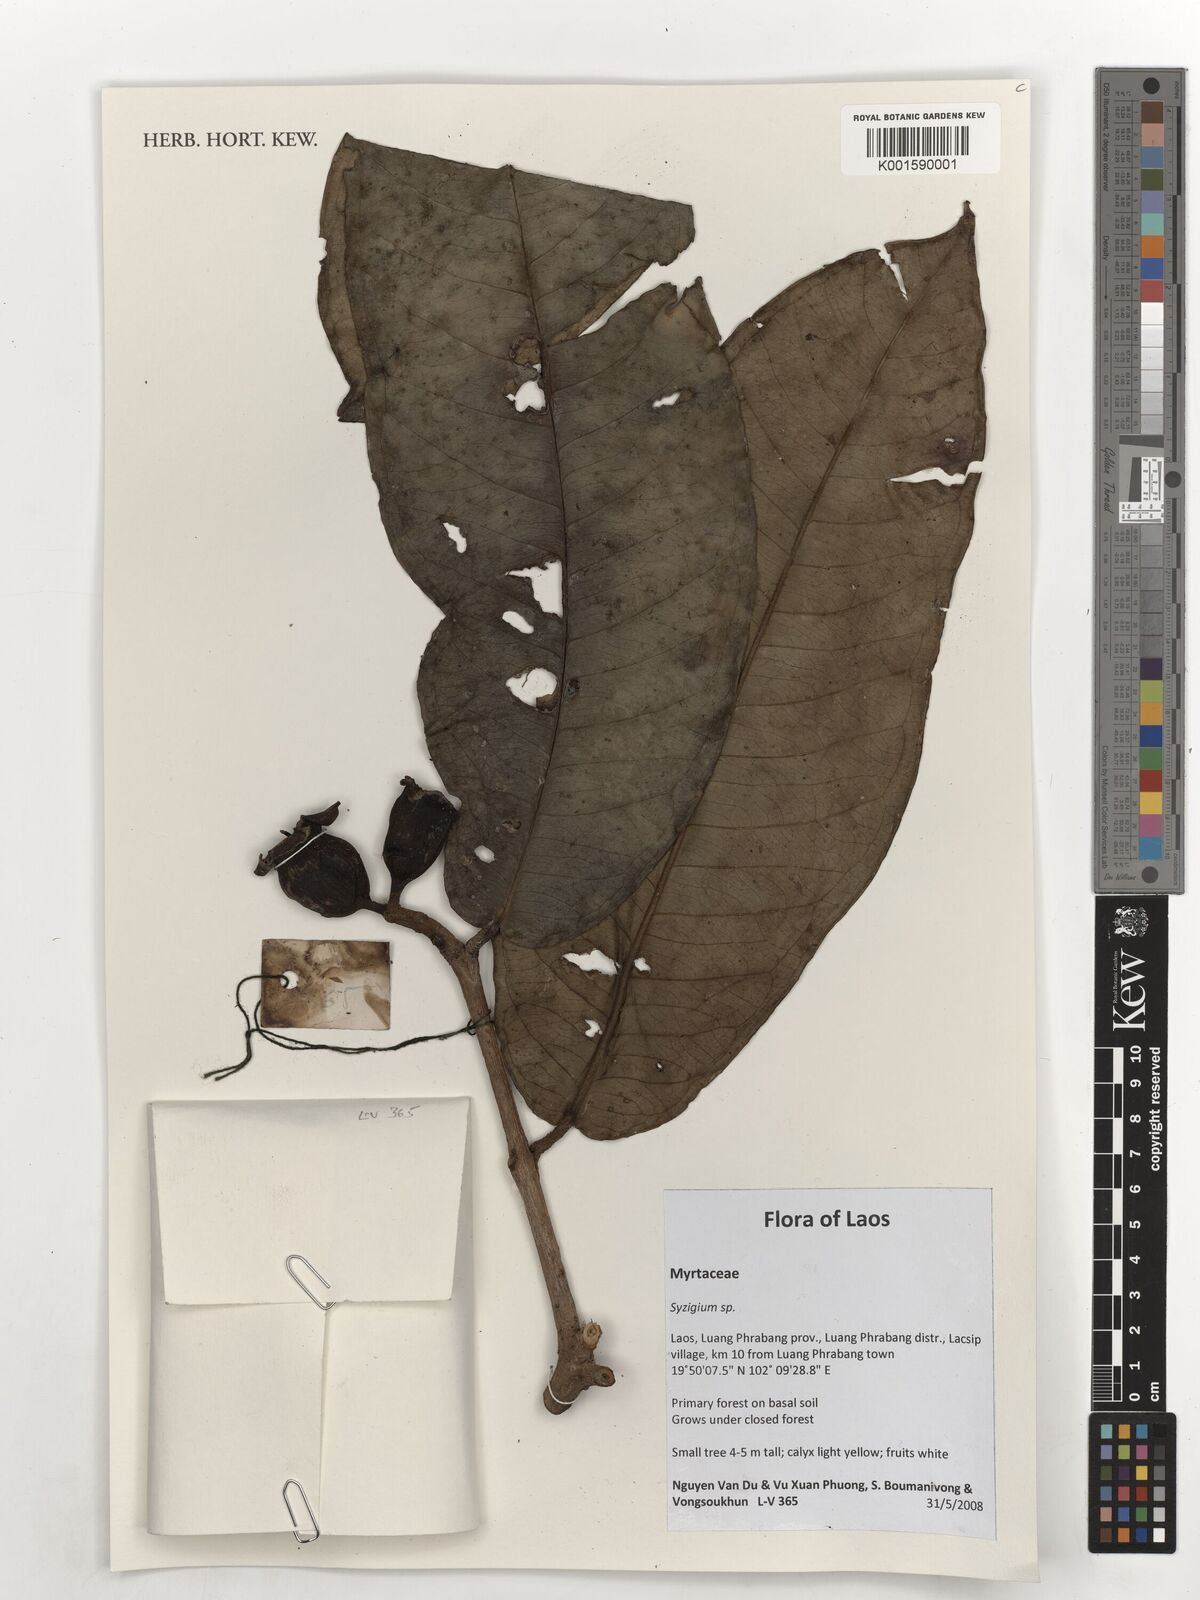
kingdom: Plantae
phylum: Tracheophyta
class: Magnoliopsida
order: Myrtales
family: Myrtaceae
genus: Syzygium
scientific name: Syzygium
